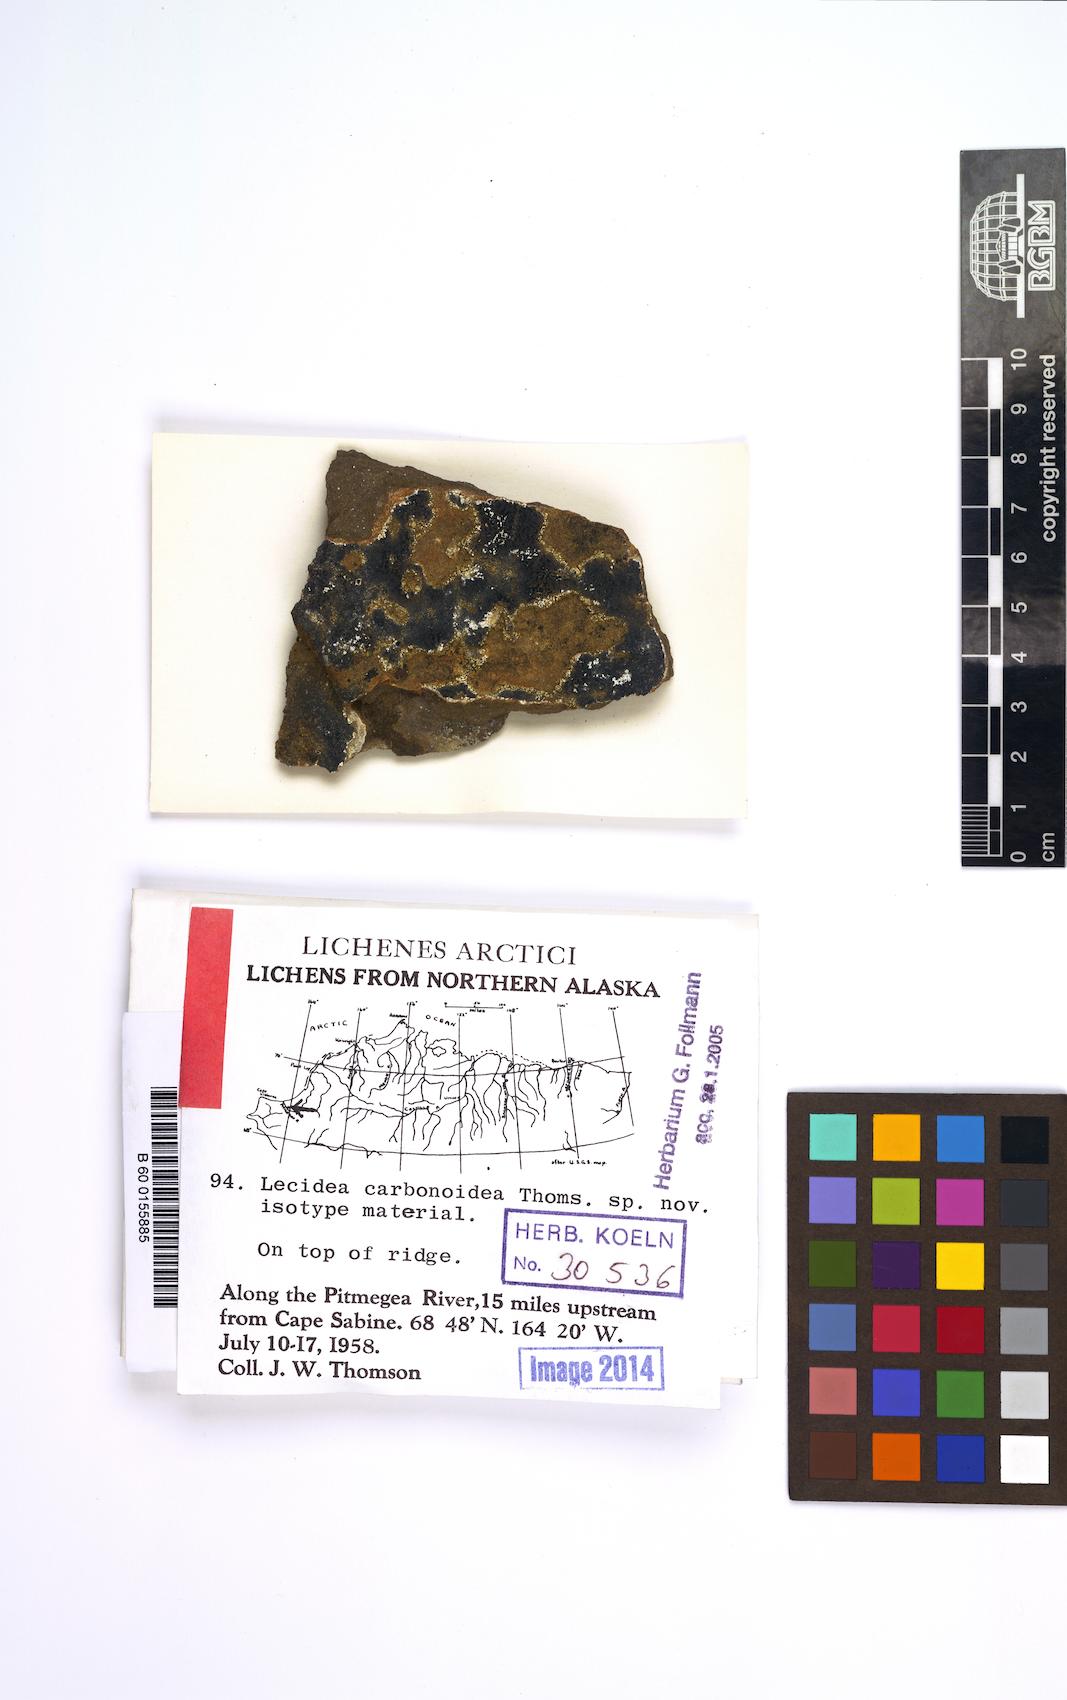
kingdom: Fungi
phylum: Ascomycota
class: Lecanoromycetes
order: Lecideales
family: Lecideaceae
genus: Lecidea
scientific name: Lecidea carbonoidea
